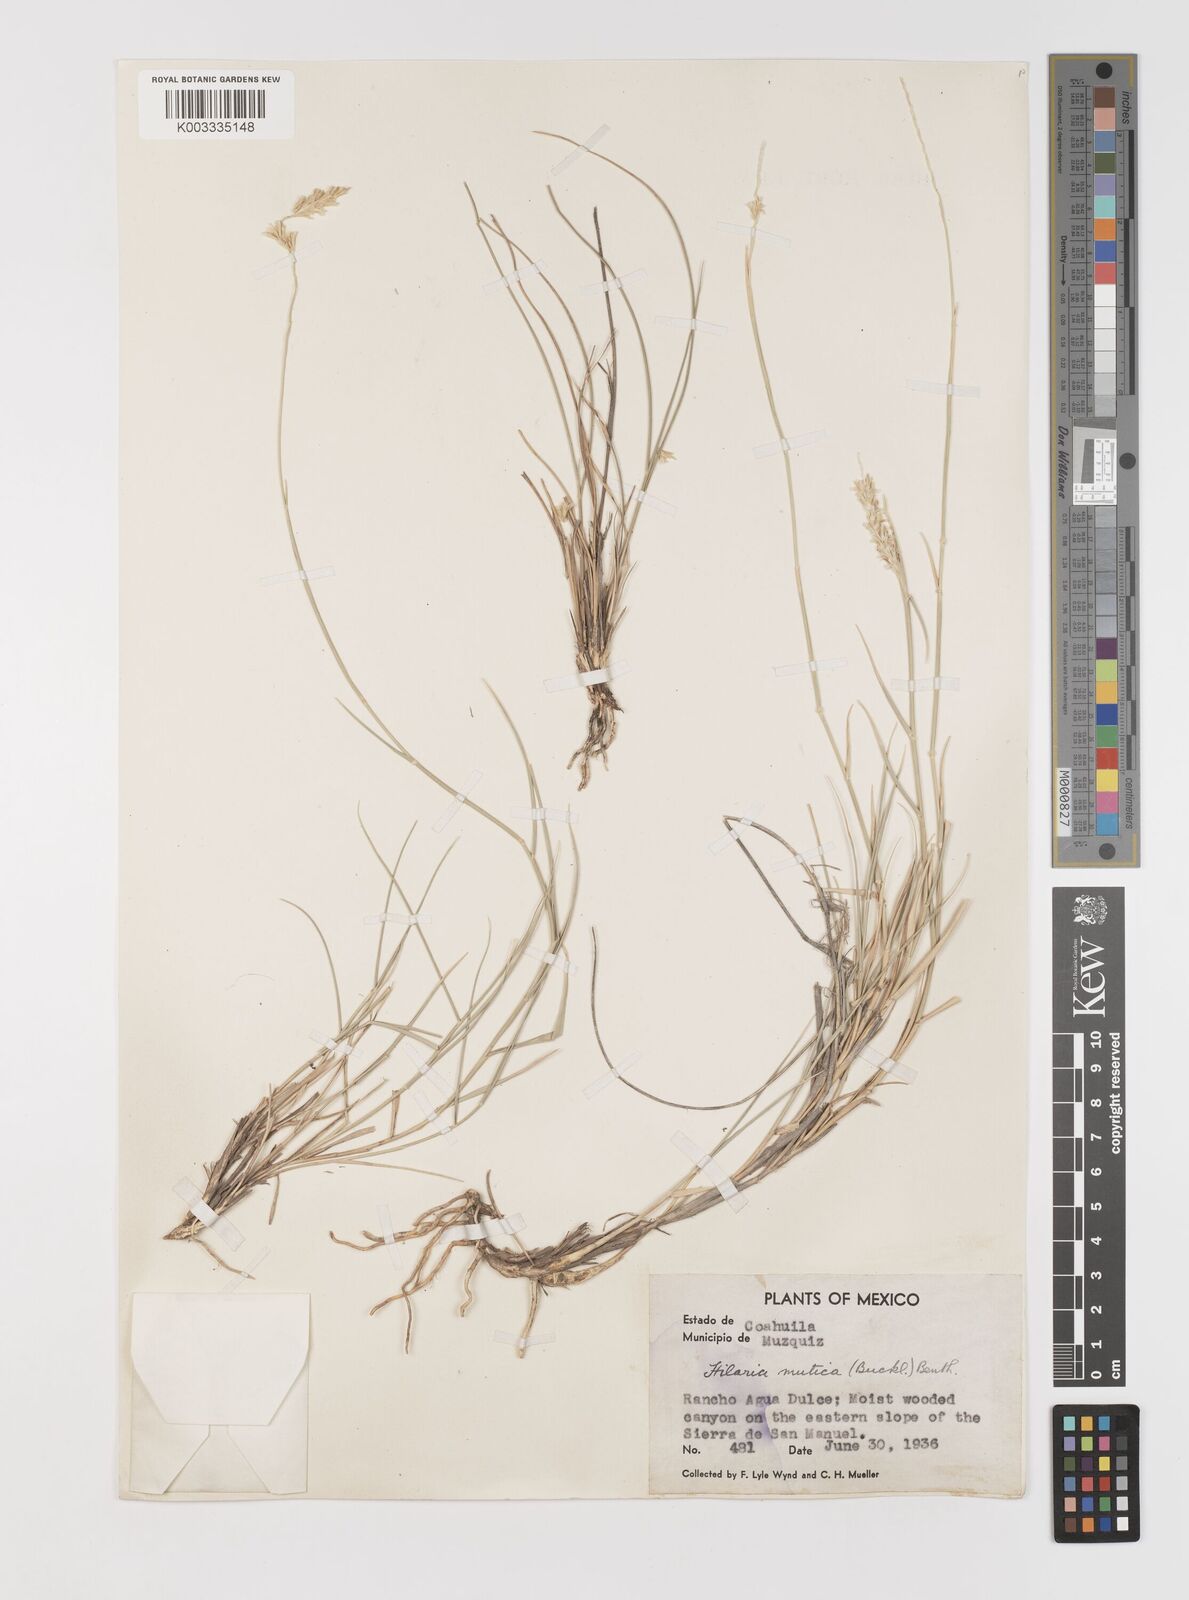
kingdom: Plantae
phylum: Tracheophyta
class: Liliopsida
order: Poales
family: Poaceae
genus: Hilaria
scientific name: Hilaria mutica
